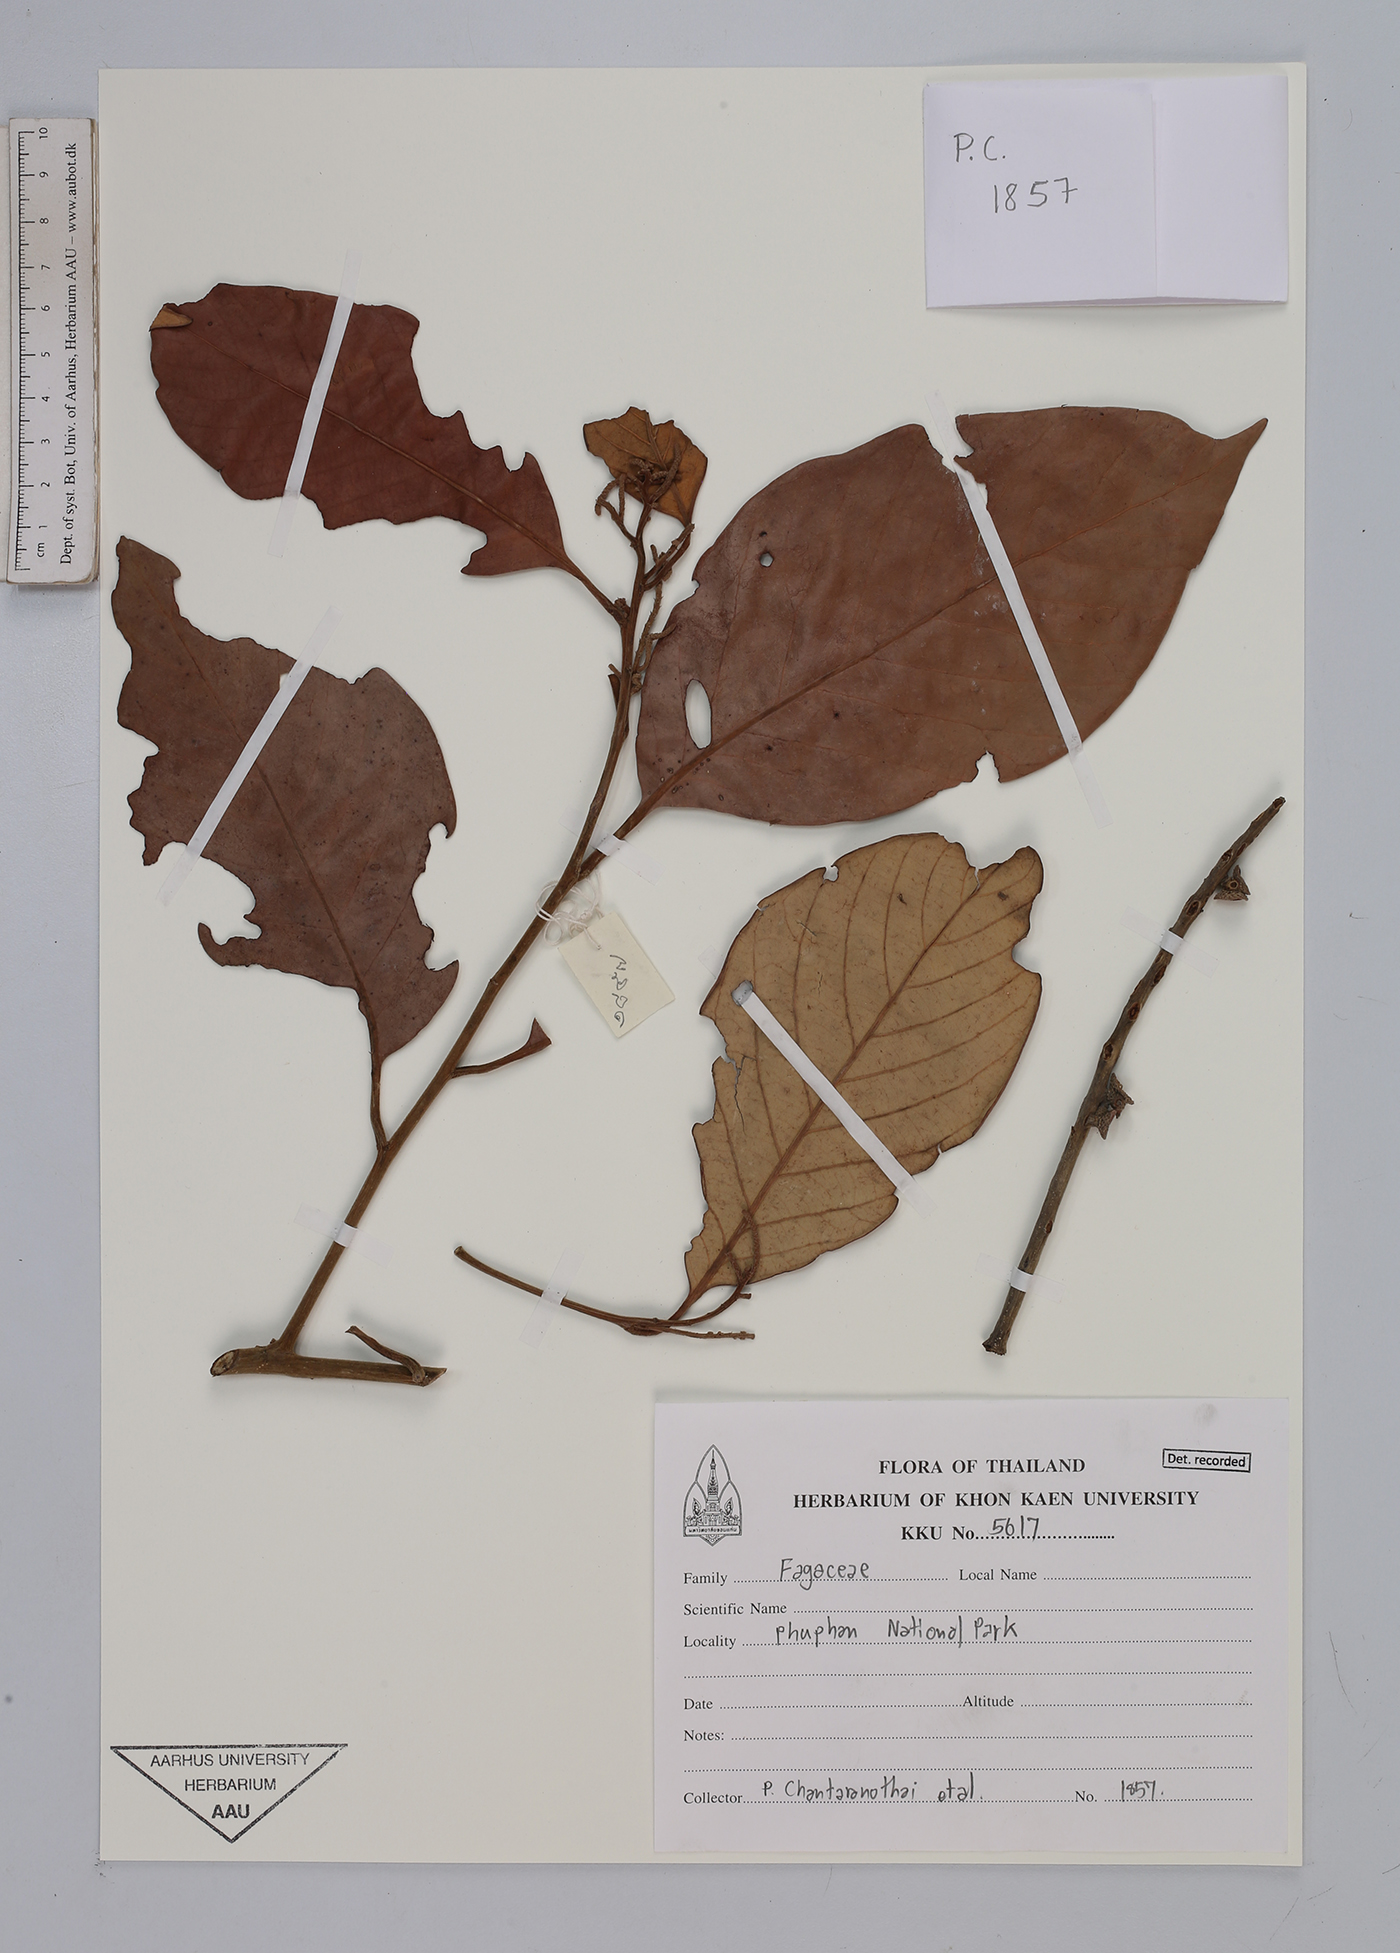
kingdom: Plantae
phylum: Tracheophyta
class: Magnoliopsida
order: Fagales
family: Fagaceae
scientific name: Fagaceae
